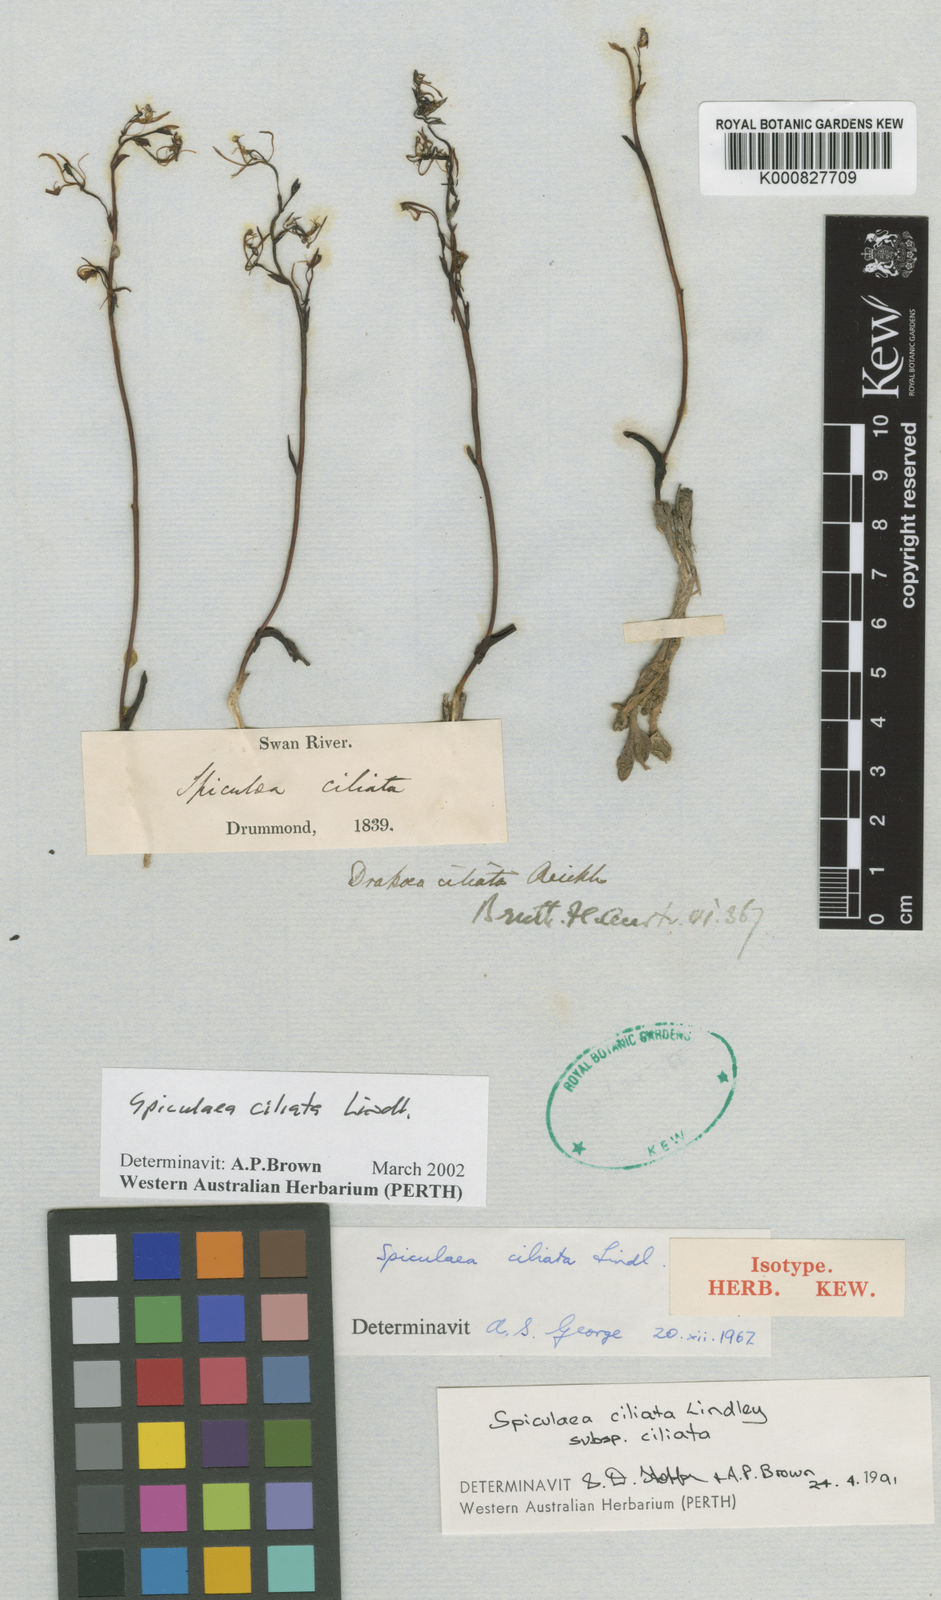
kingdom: Plantae
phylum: Tracheophyta
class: Liliopsida
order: Asparagales
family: Orchidaceae
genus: Spiculaea
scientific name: Spiculaea ciliata
